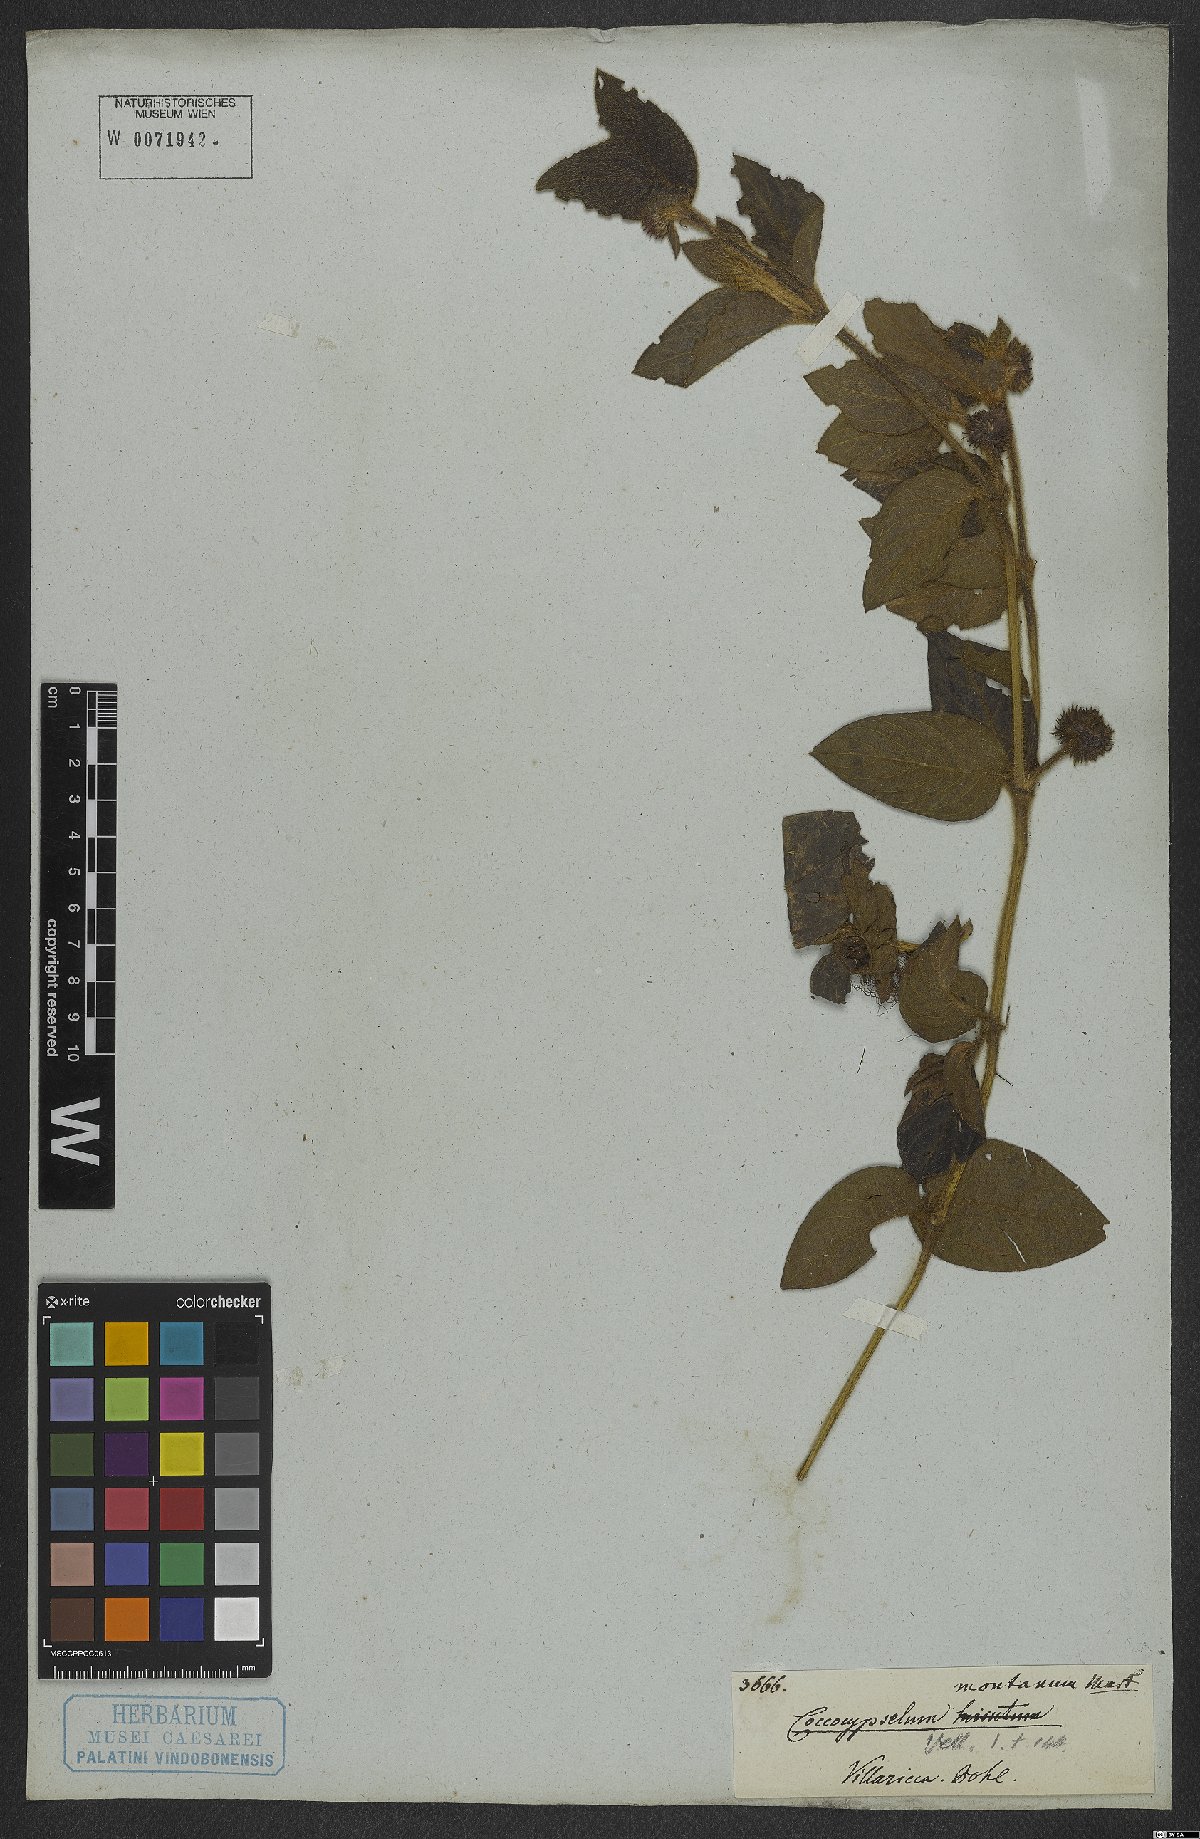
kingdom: Plantae
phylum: Tracheophyta
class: Magnoliopsida
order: Gentianales
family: Rubiaceae
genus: Coccocypselum
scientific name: Coccocypselum erythrocephalum
